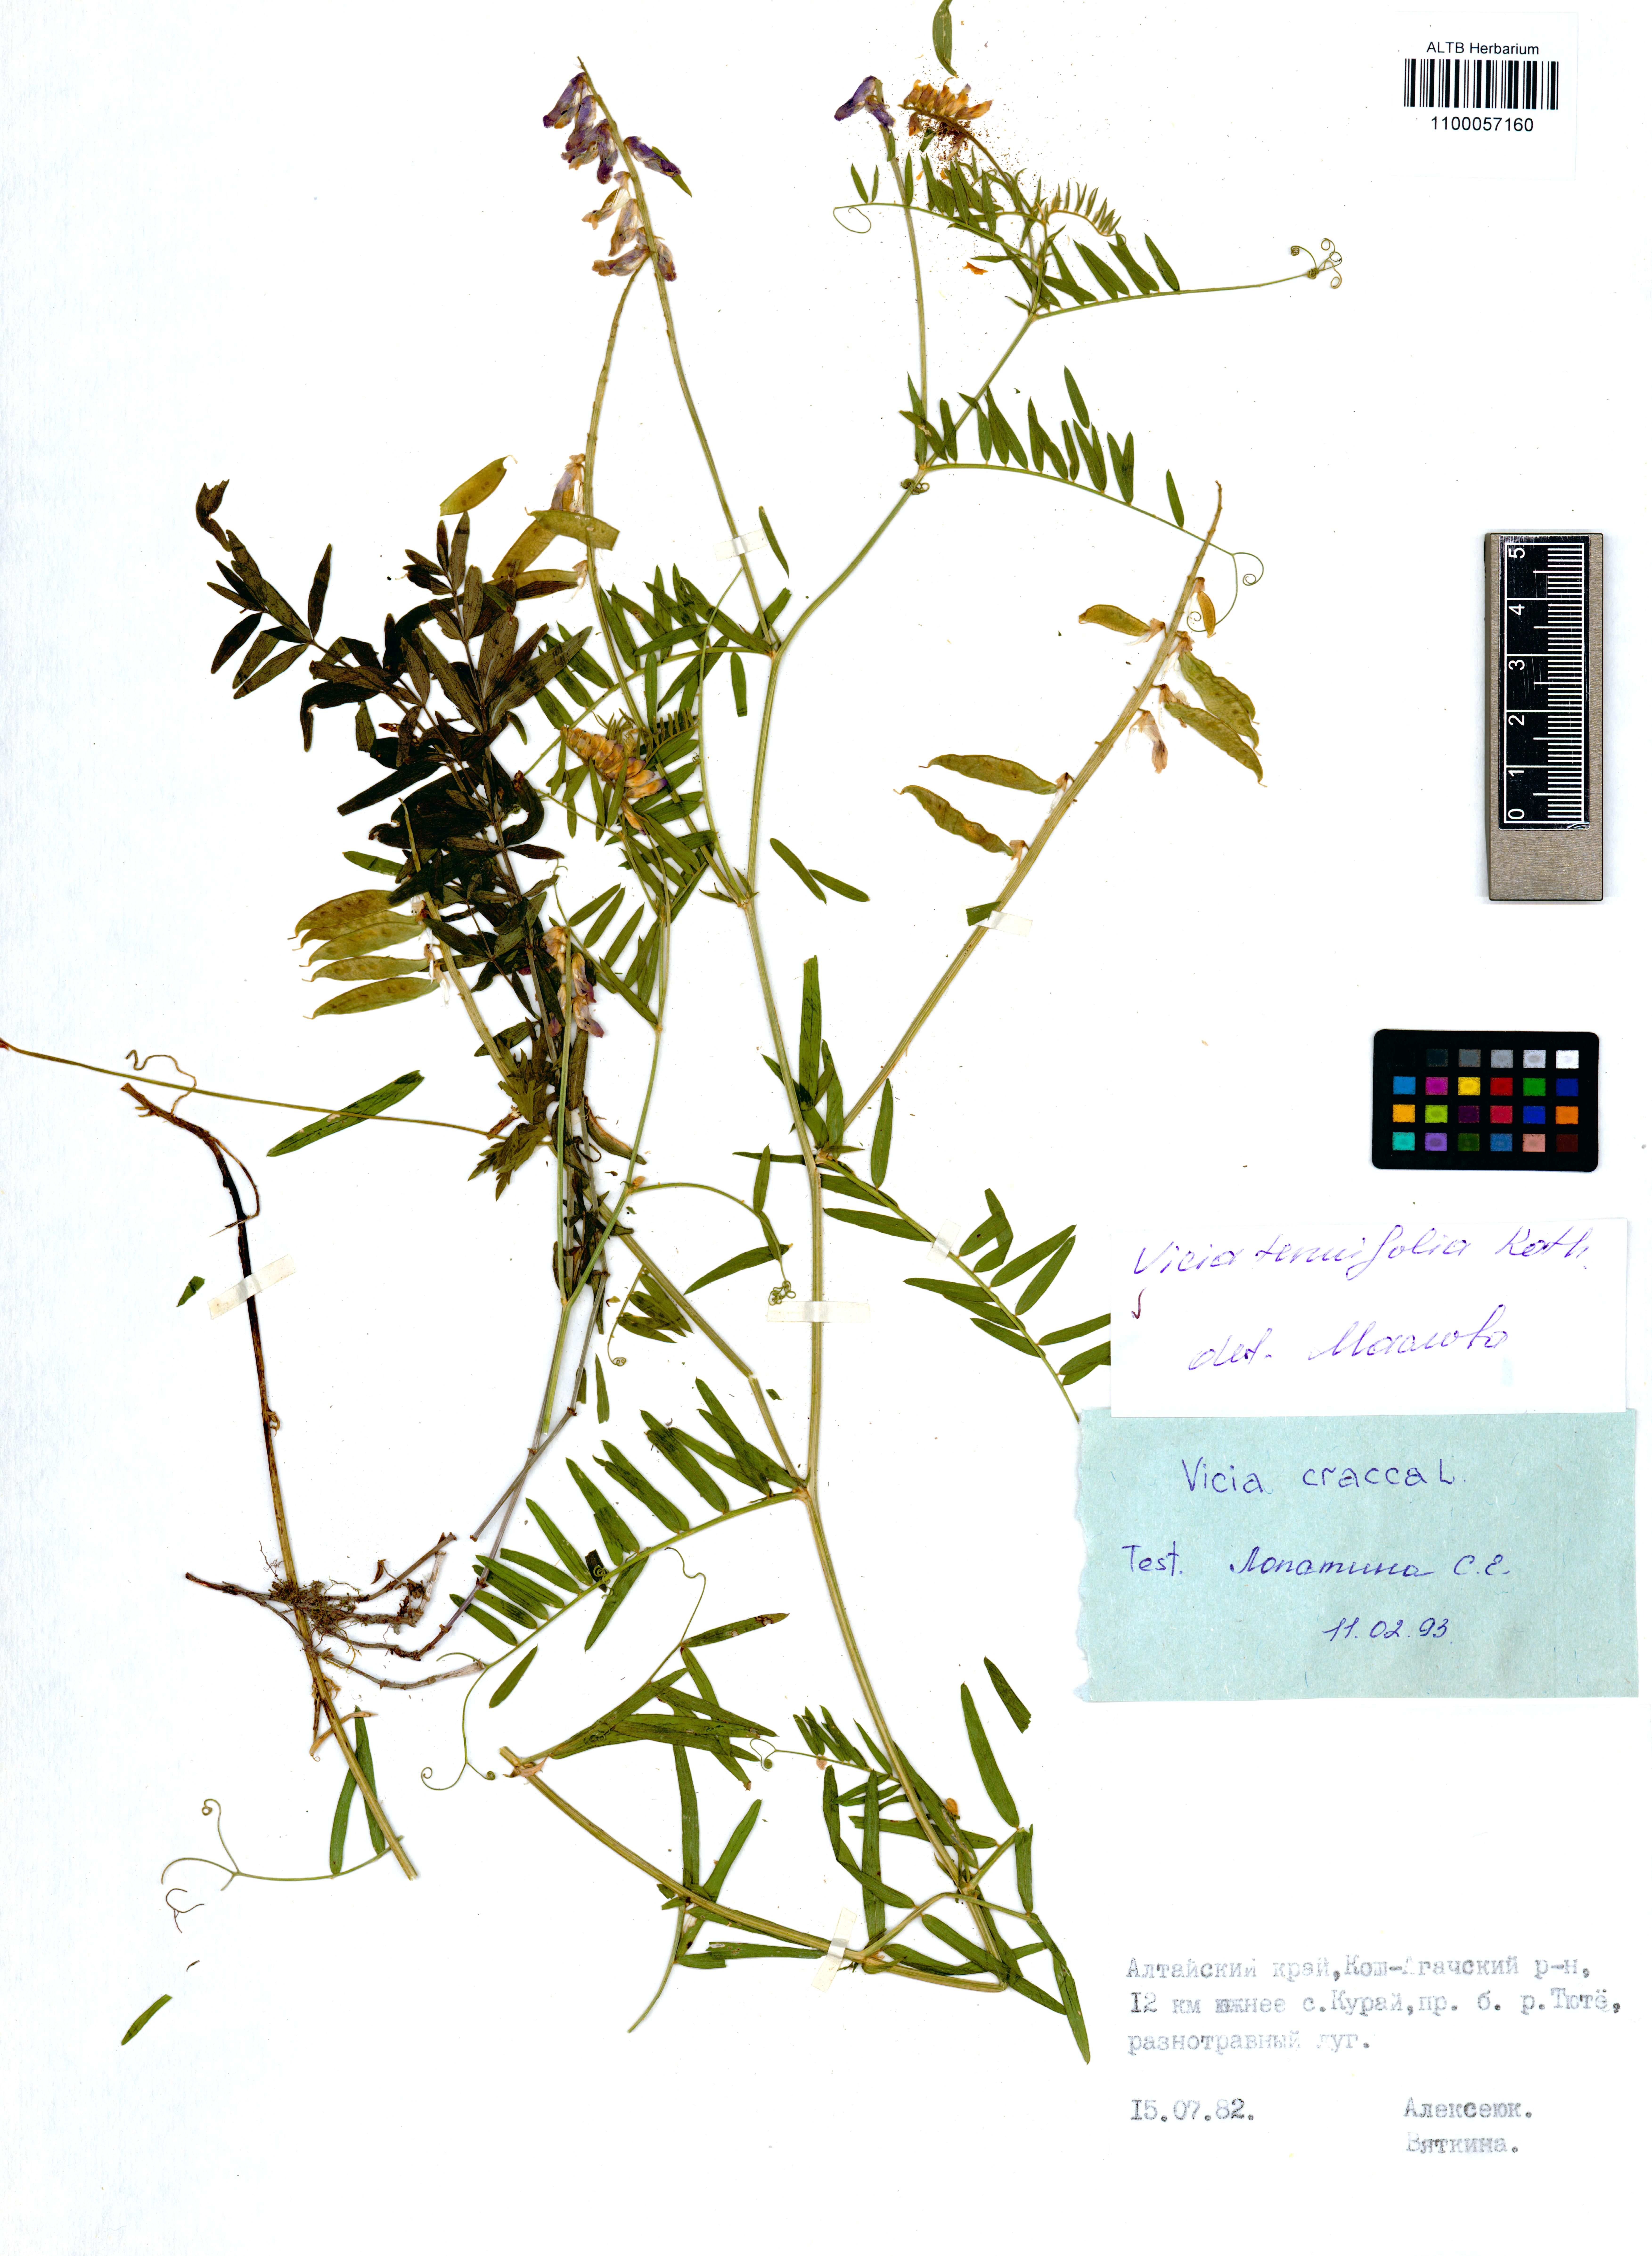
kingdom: Plantae
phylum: Tracheophyta
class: Magnoliopsida
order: Fabales
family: Fabaceae
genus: Vicia
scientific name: Vicia tenuifolia
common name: Fine-leaved vetch
